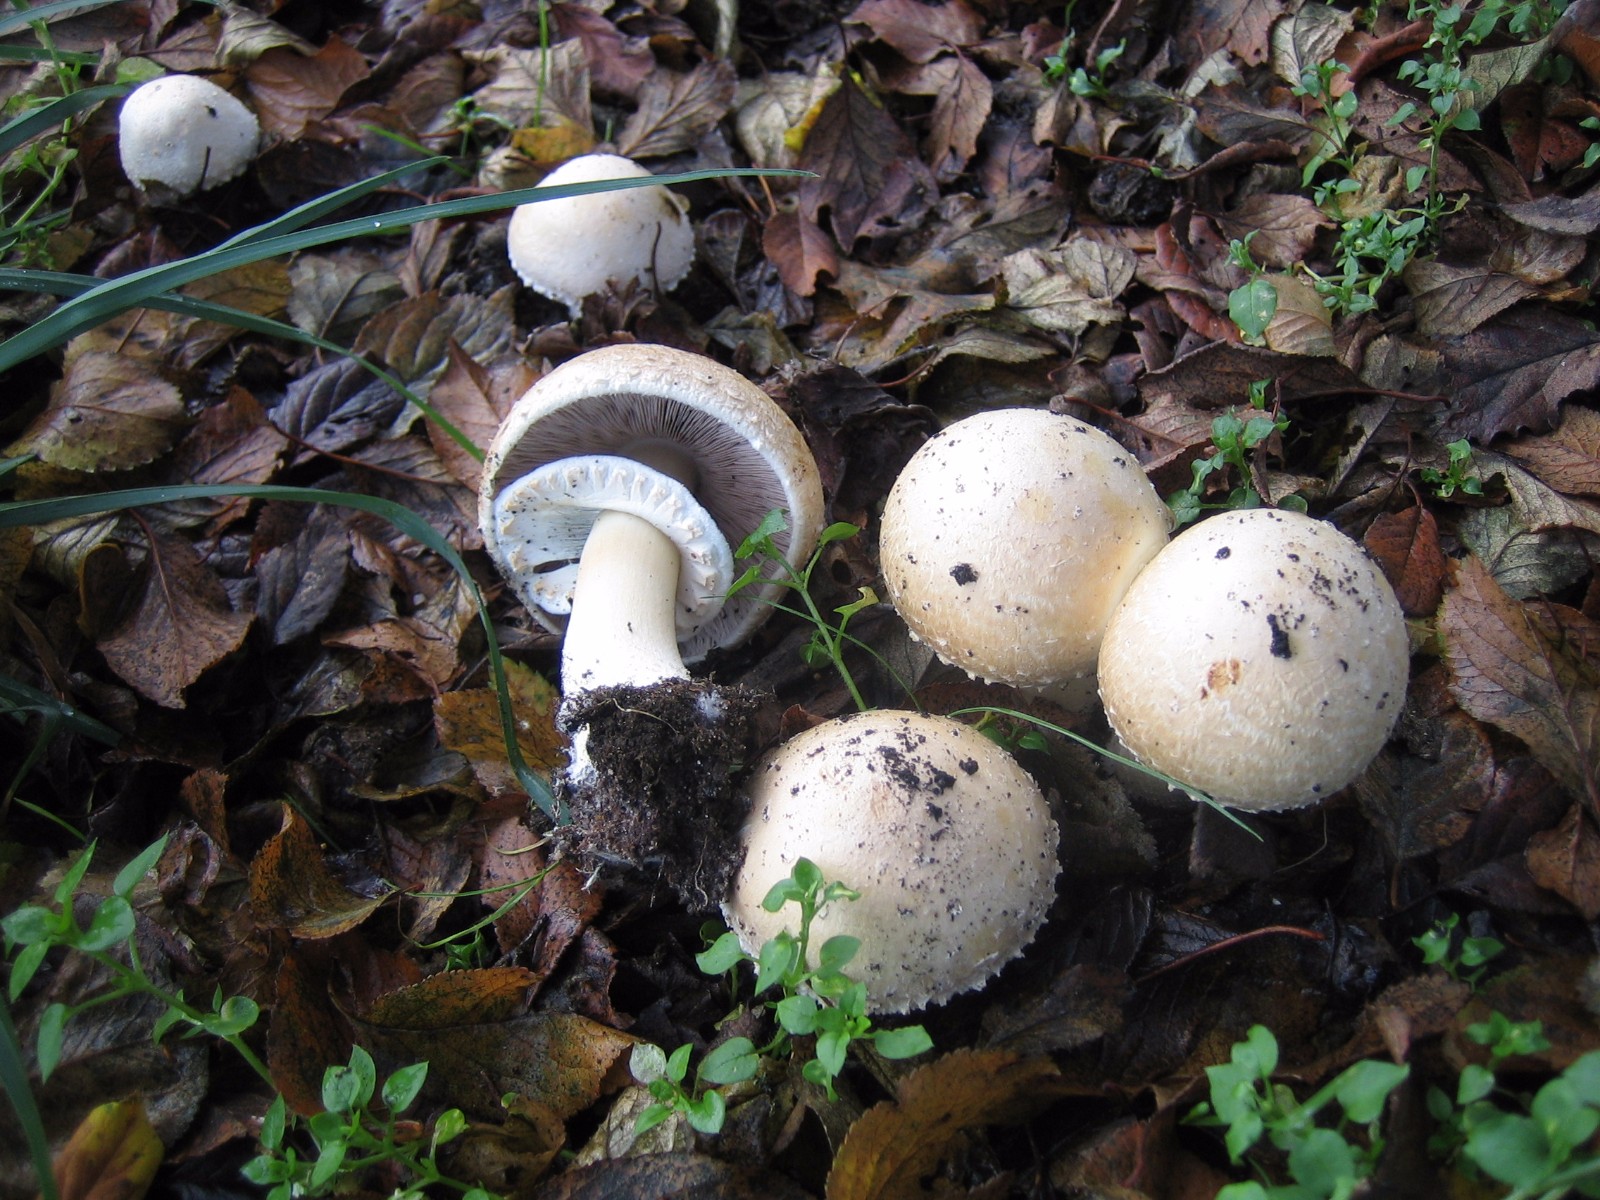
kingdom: Fungi
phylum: Basidiomycota
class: Agaricomycetes
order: Agaricales
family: Agaricaceae
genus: Agaricus
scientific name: Agaricus
